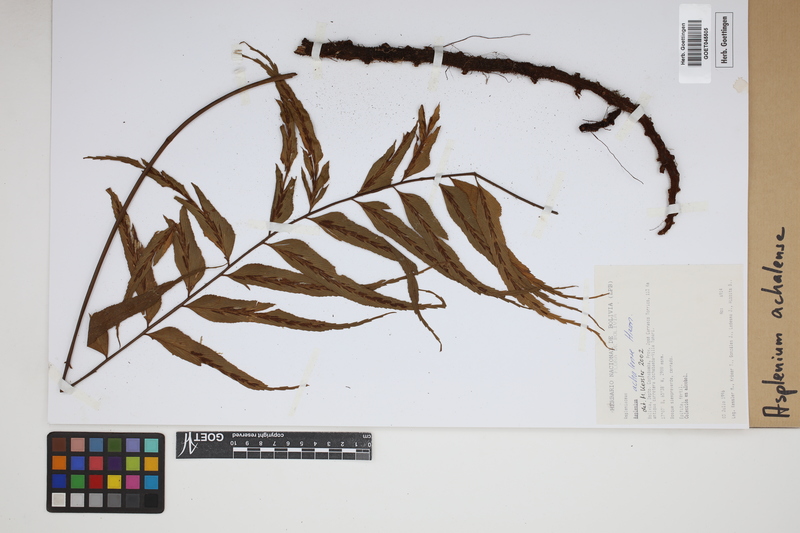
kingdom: Plantae
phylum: Tracheophyta
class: Polypodiopsida
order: Polypodiales
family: Aspleniaceae
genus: Asplenium
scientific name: Asplenium achalense
